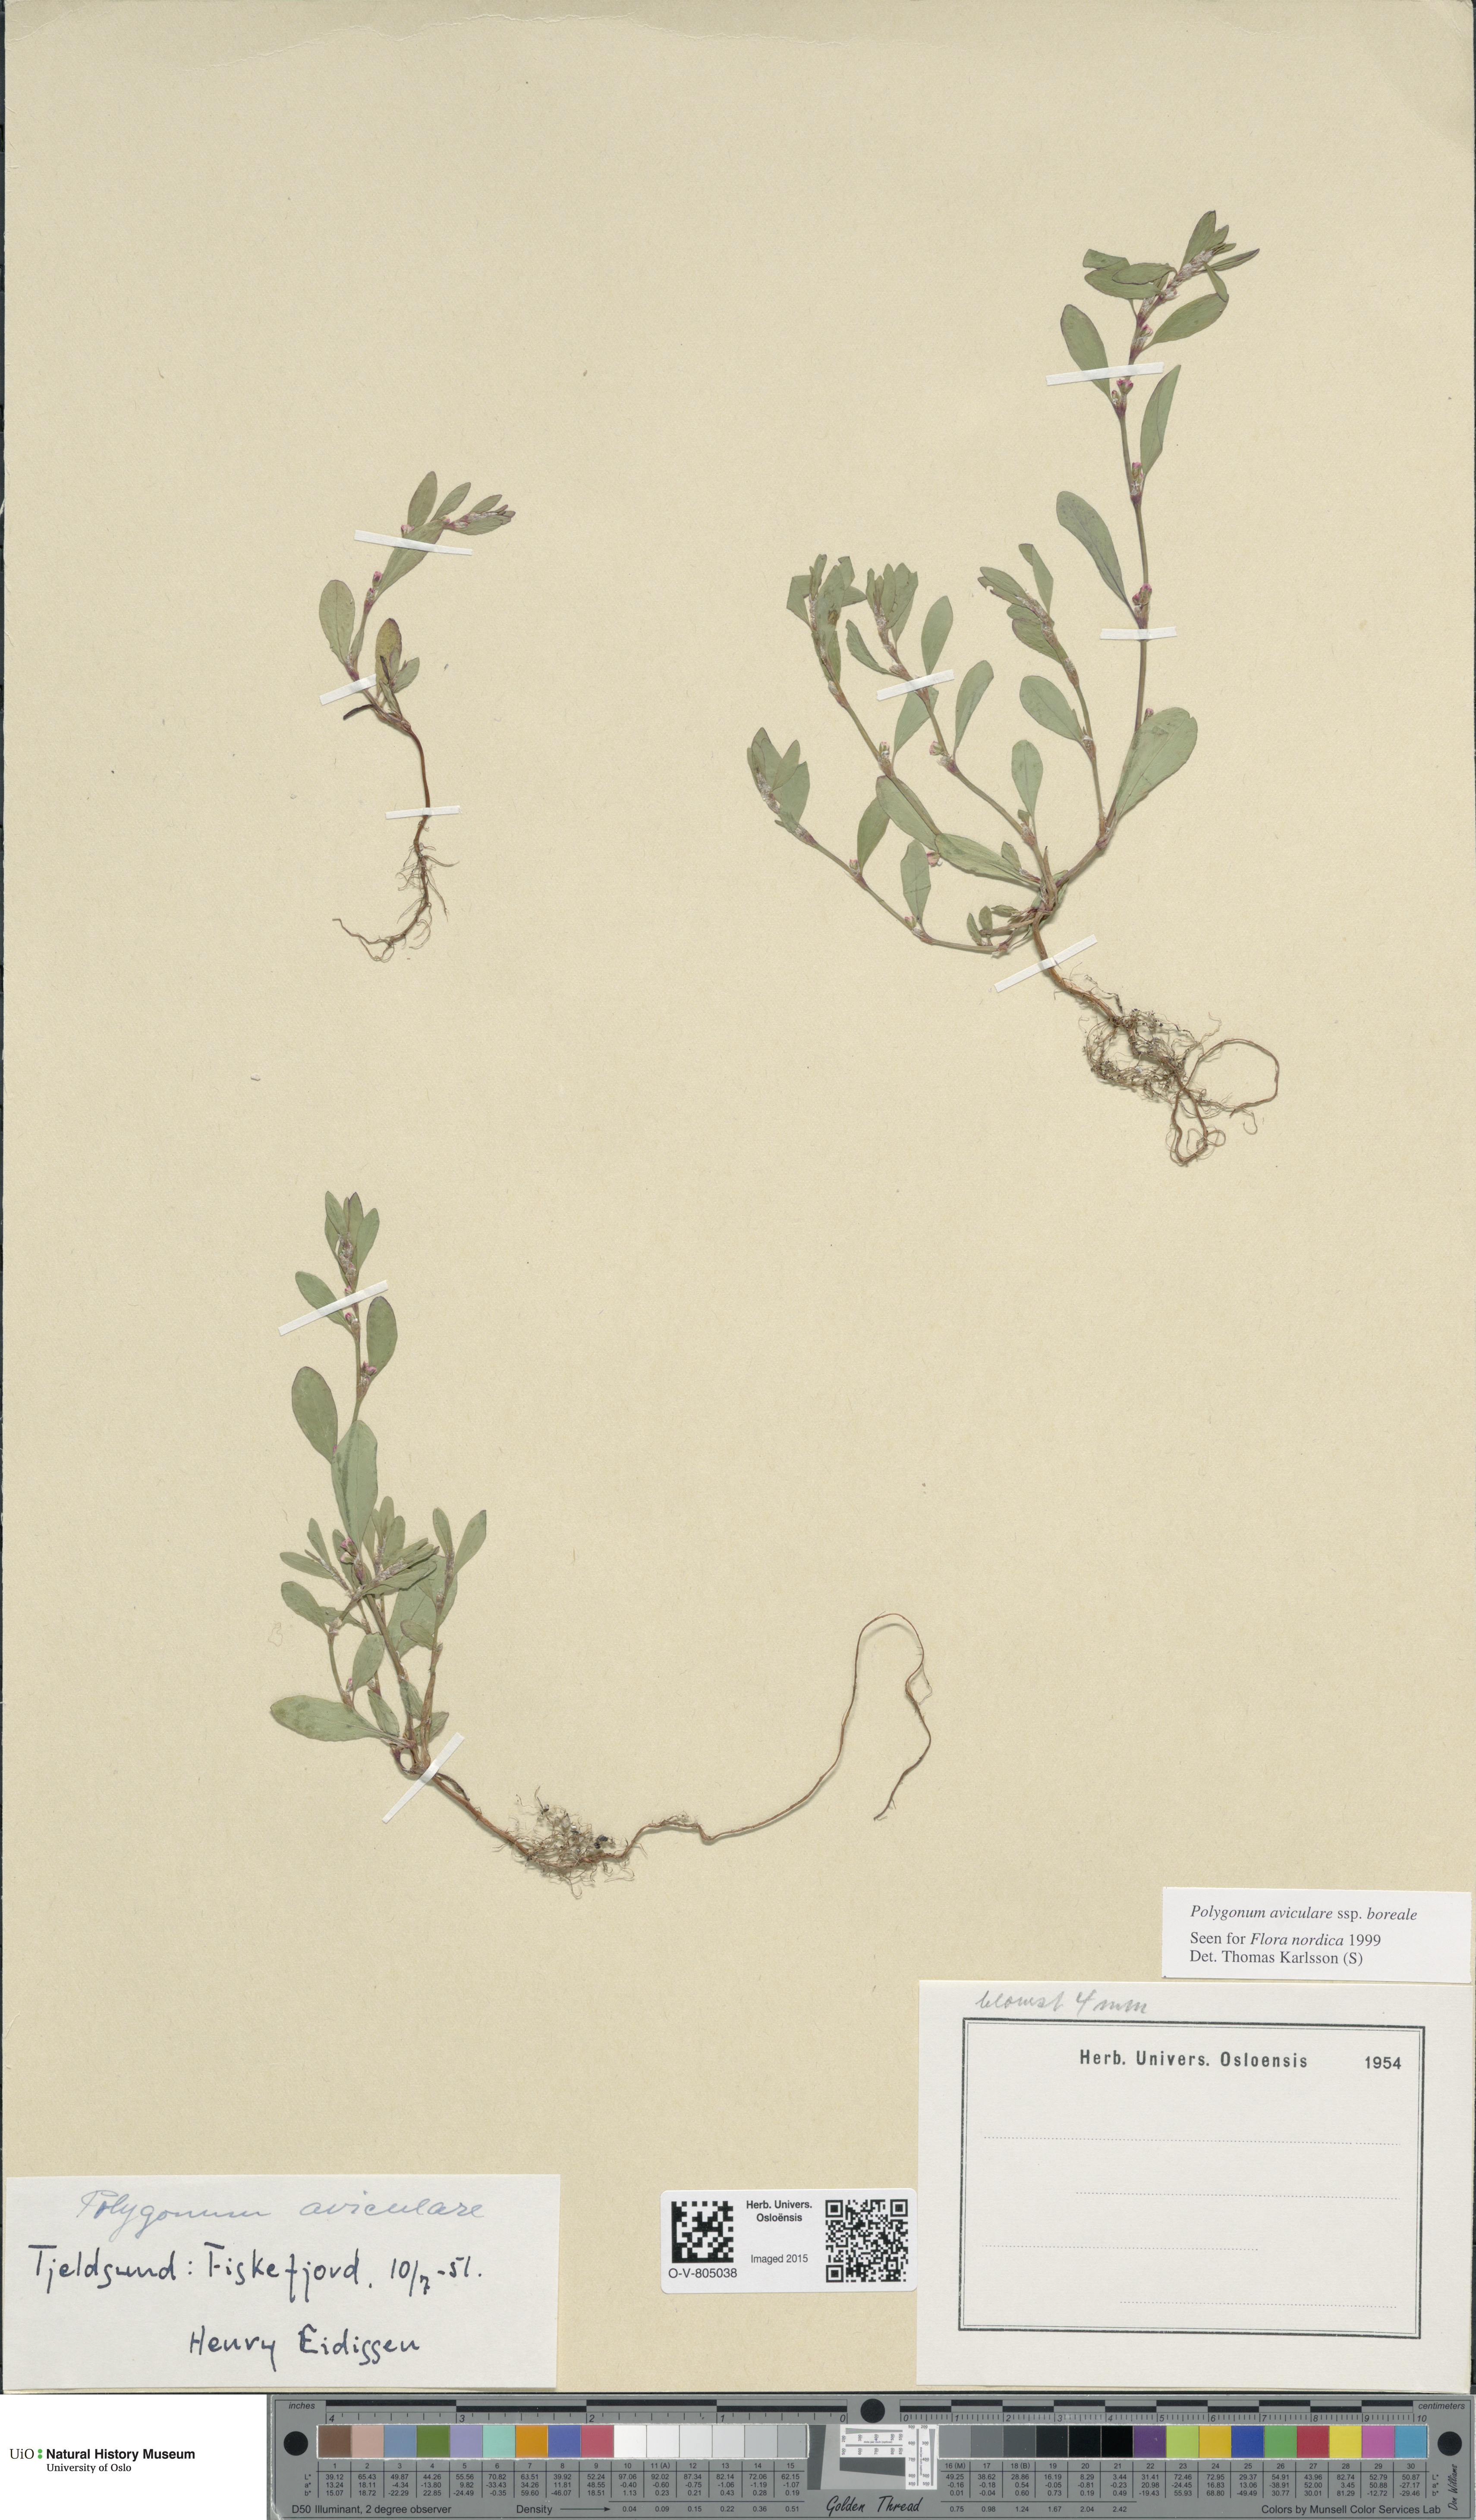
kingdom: Plantae
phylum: Tracheophyta
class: Magnoliopsida
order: Caryophyllales
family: Polygonaceae
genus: Polygonum
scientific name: Polygonum boreale
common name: Northern knotgrass
